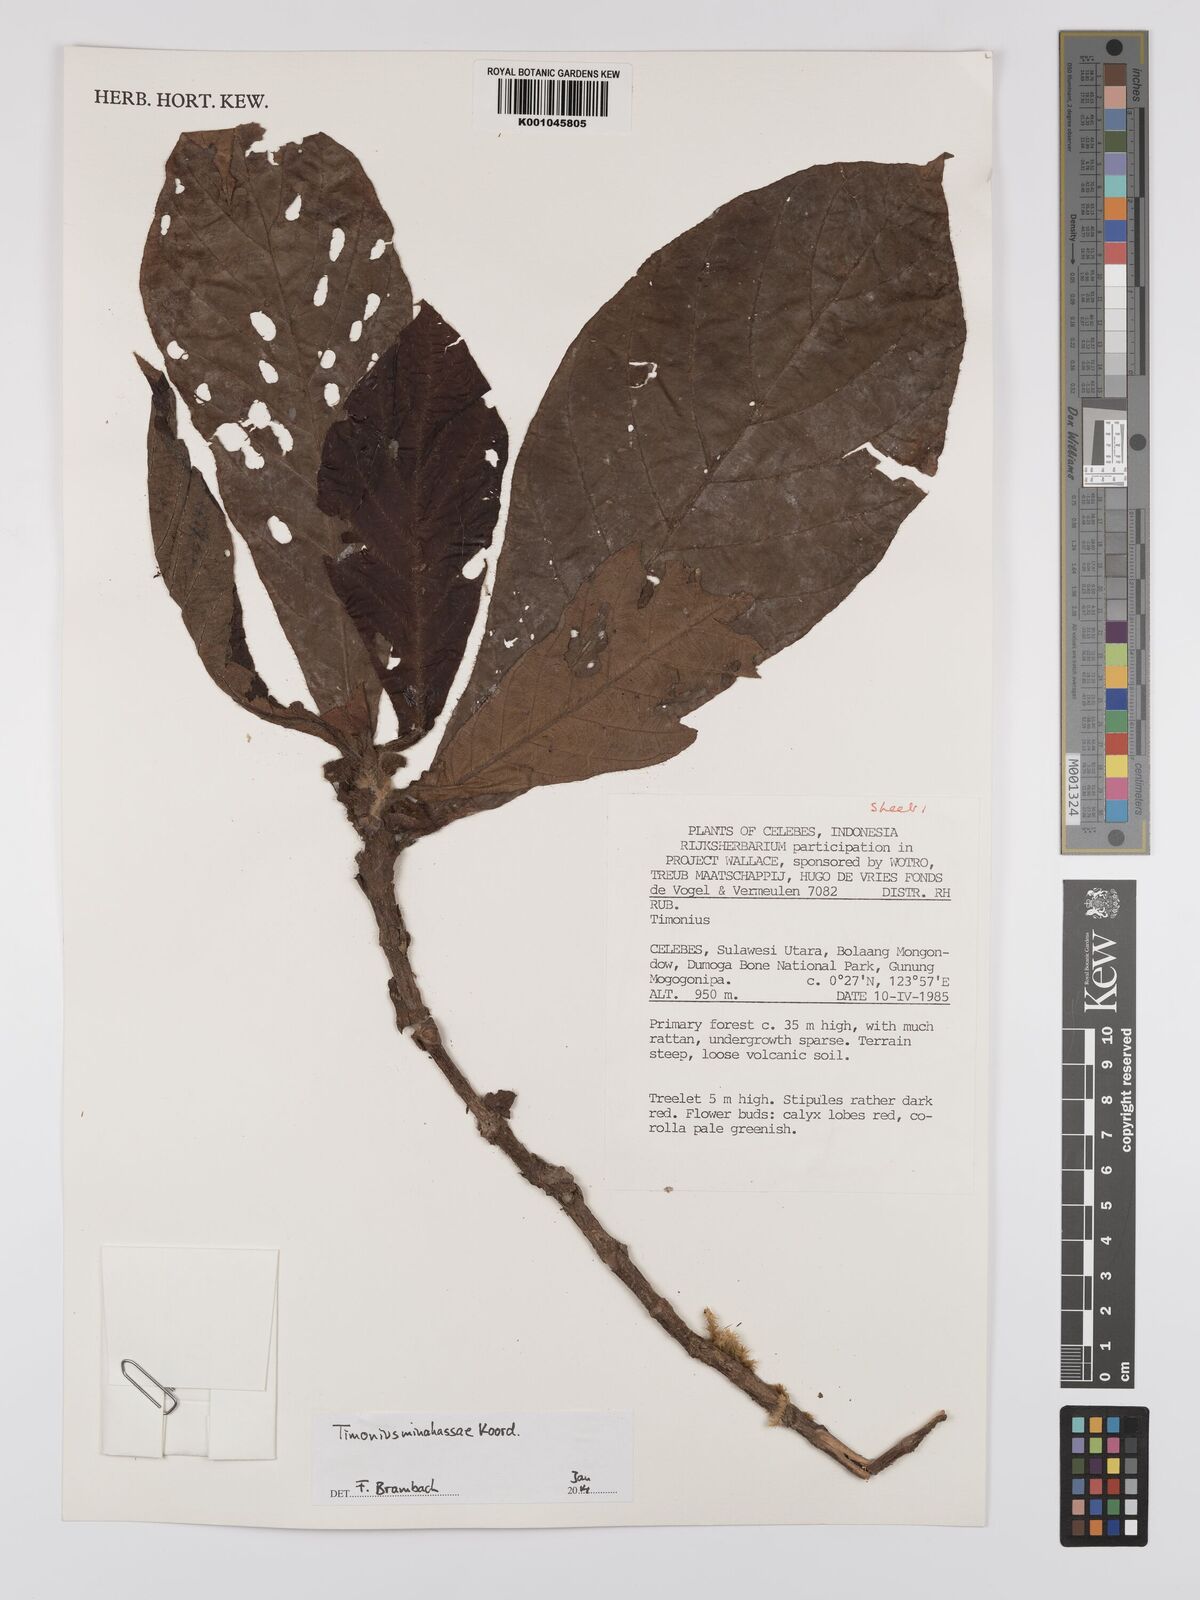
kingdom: Plantae
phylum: Tracheophyta
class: Magnoliopsida
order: Gentianales
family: Rubiaceae
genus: Timonius
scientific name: Timonius minahassae
